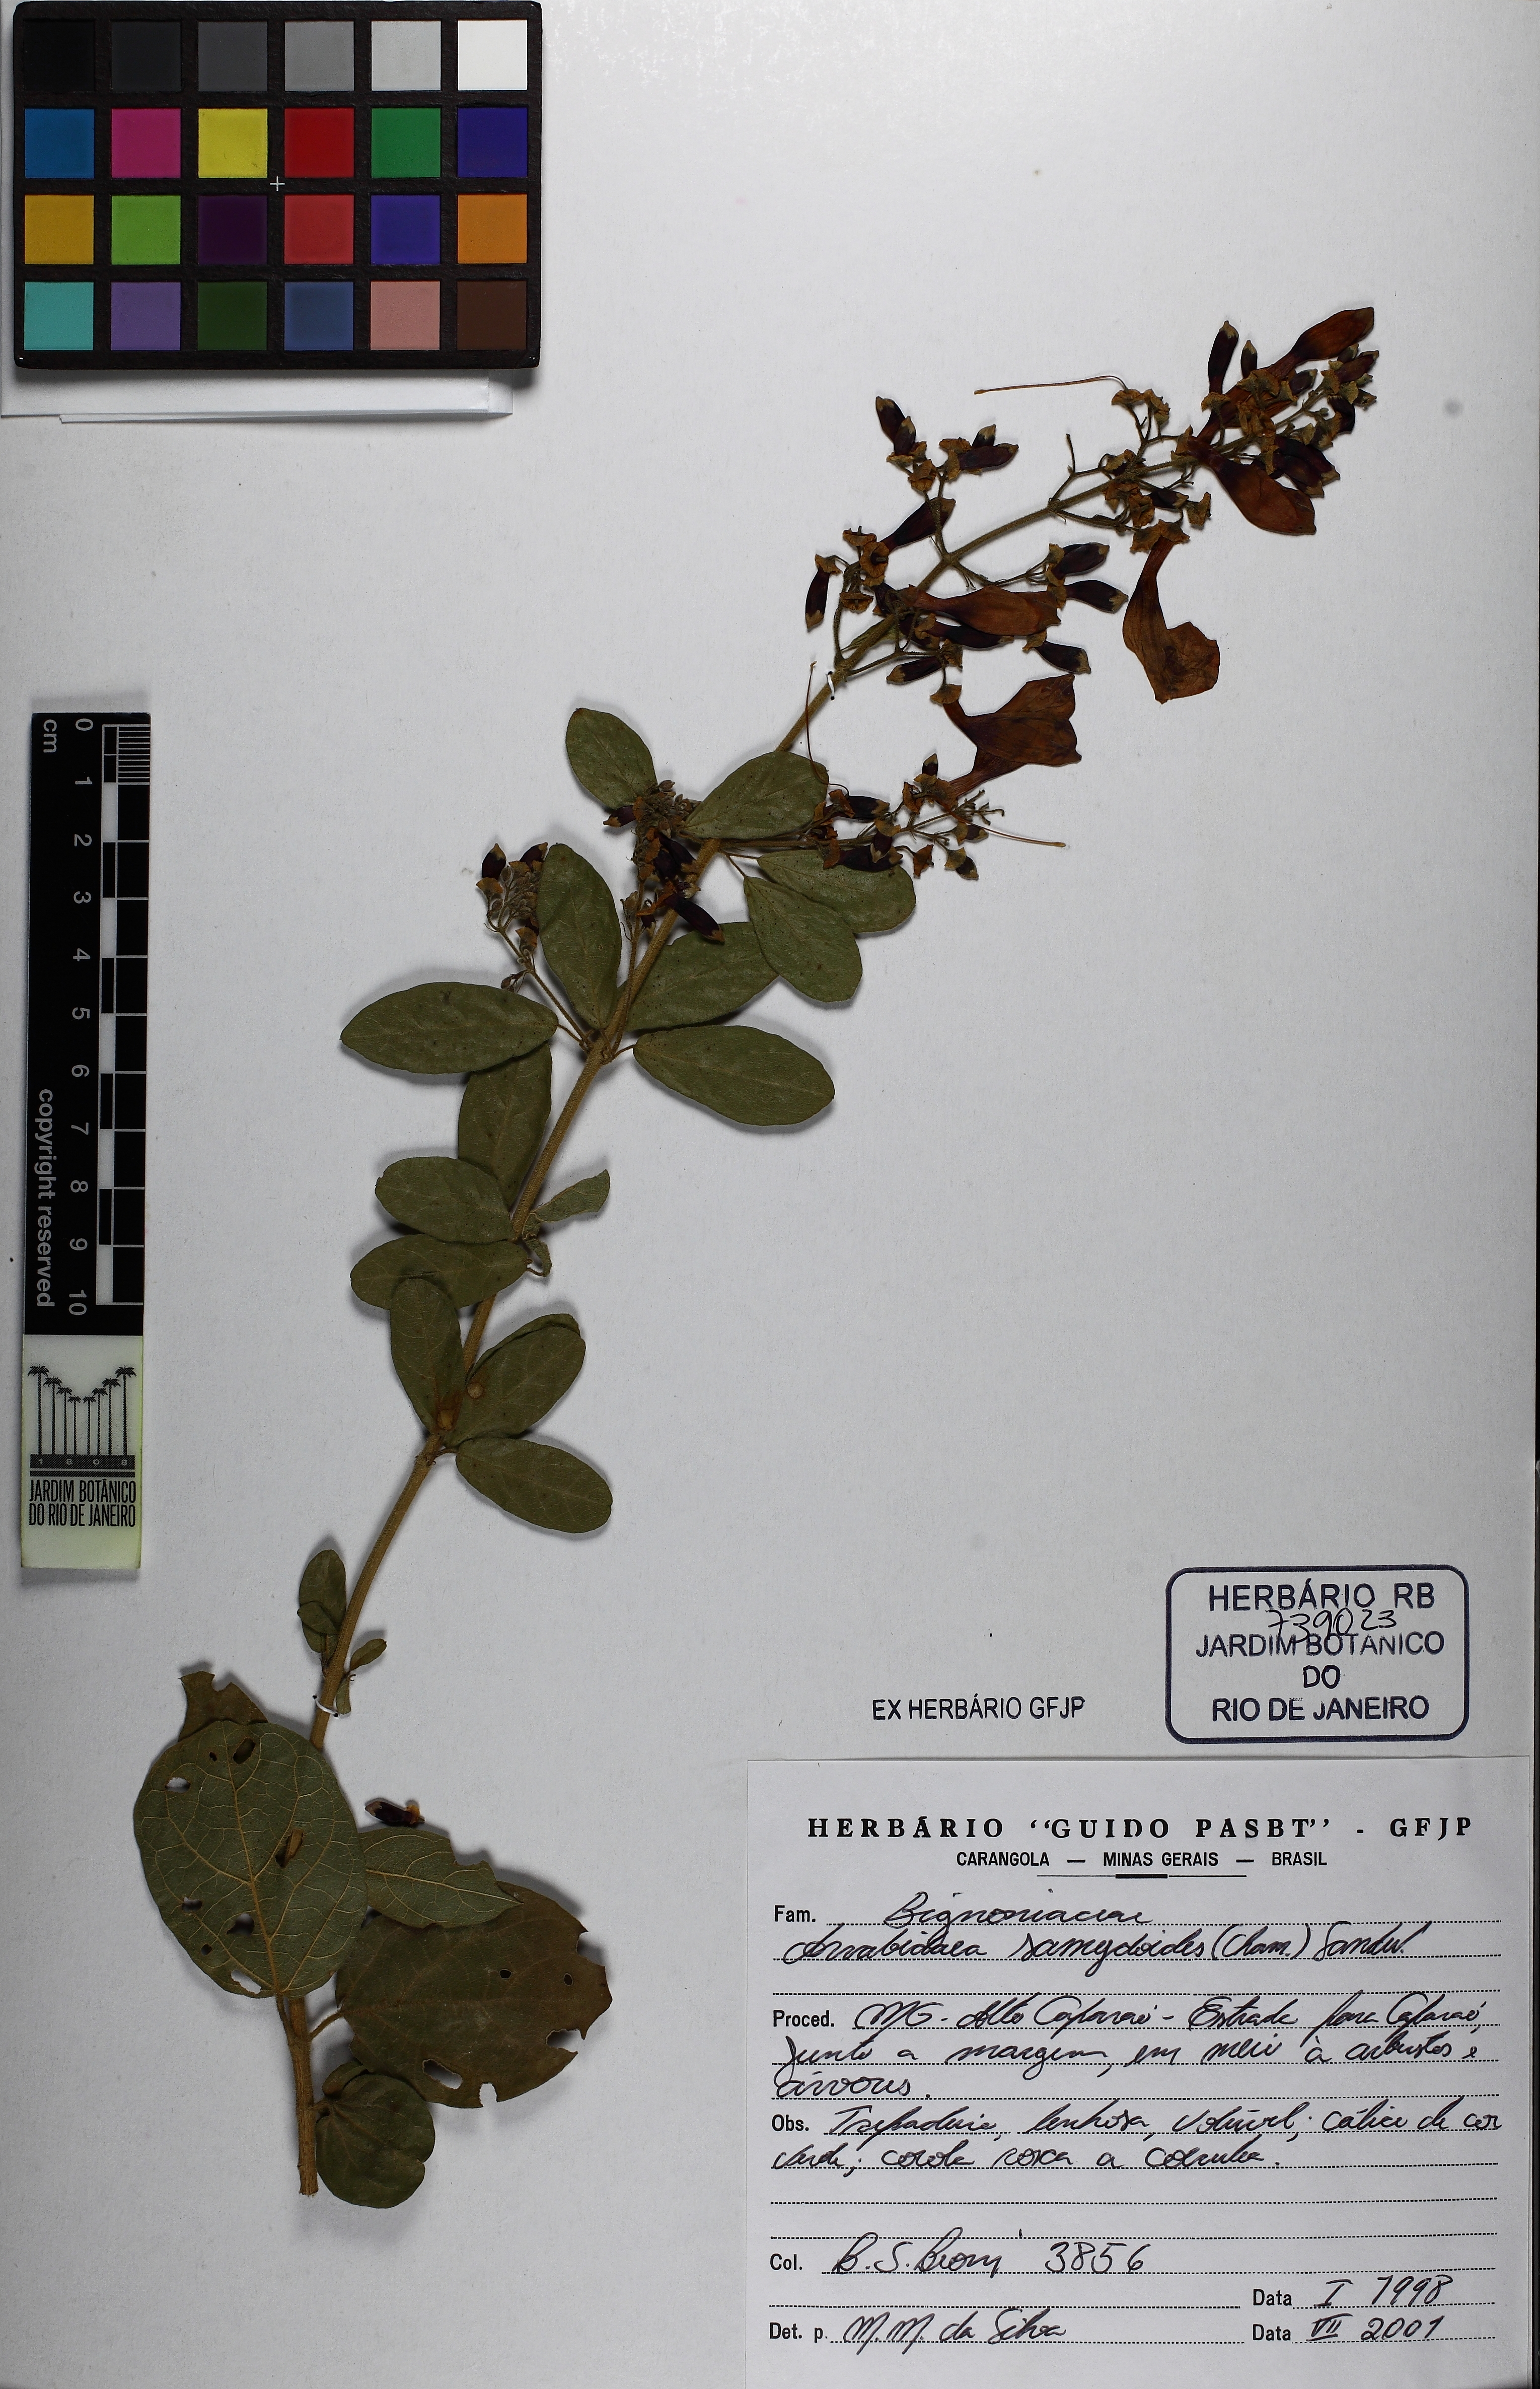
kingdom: Plantae
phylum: Tracheophyta
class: Magnoliopsida
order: Lamiales
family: Bignoniaceae
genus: Fridericia
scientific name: Fridericia samydoides
